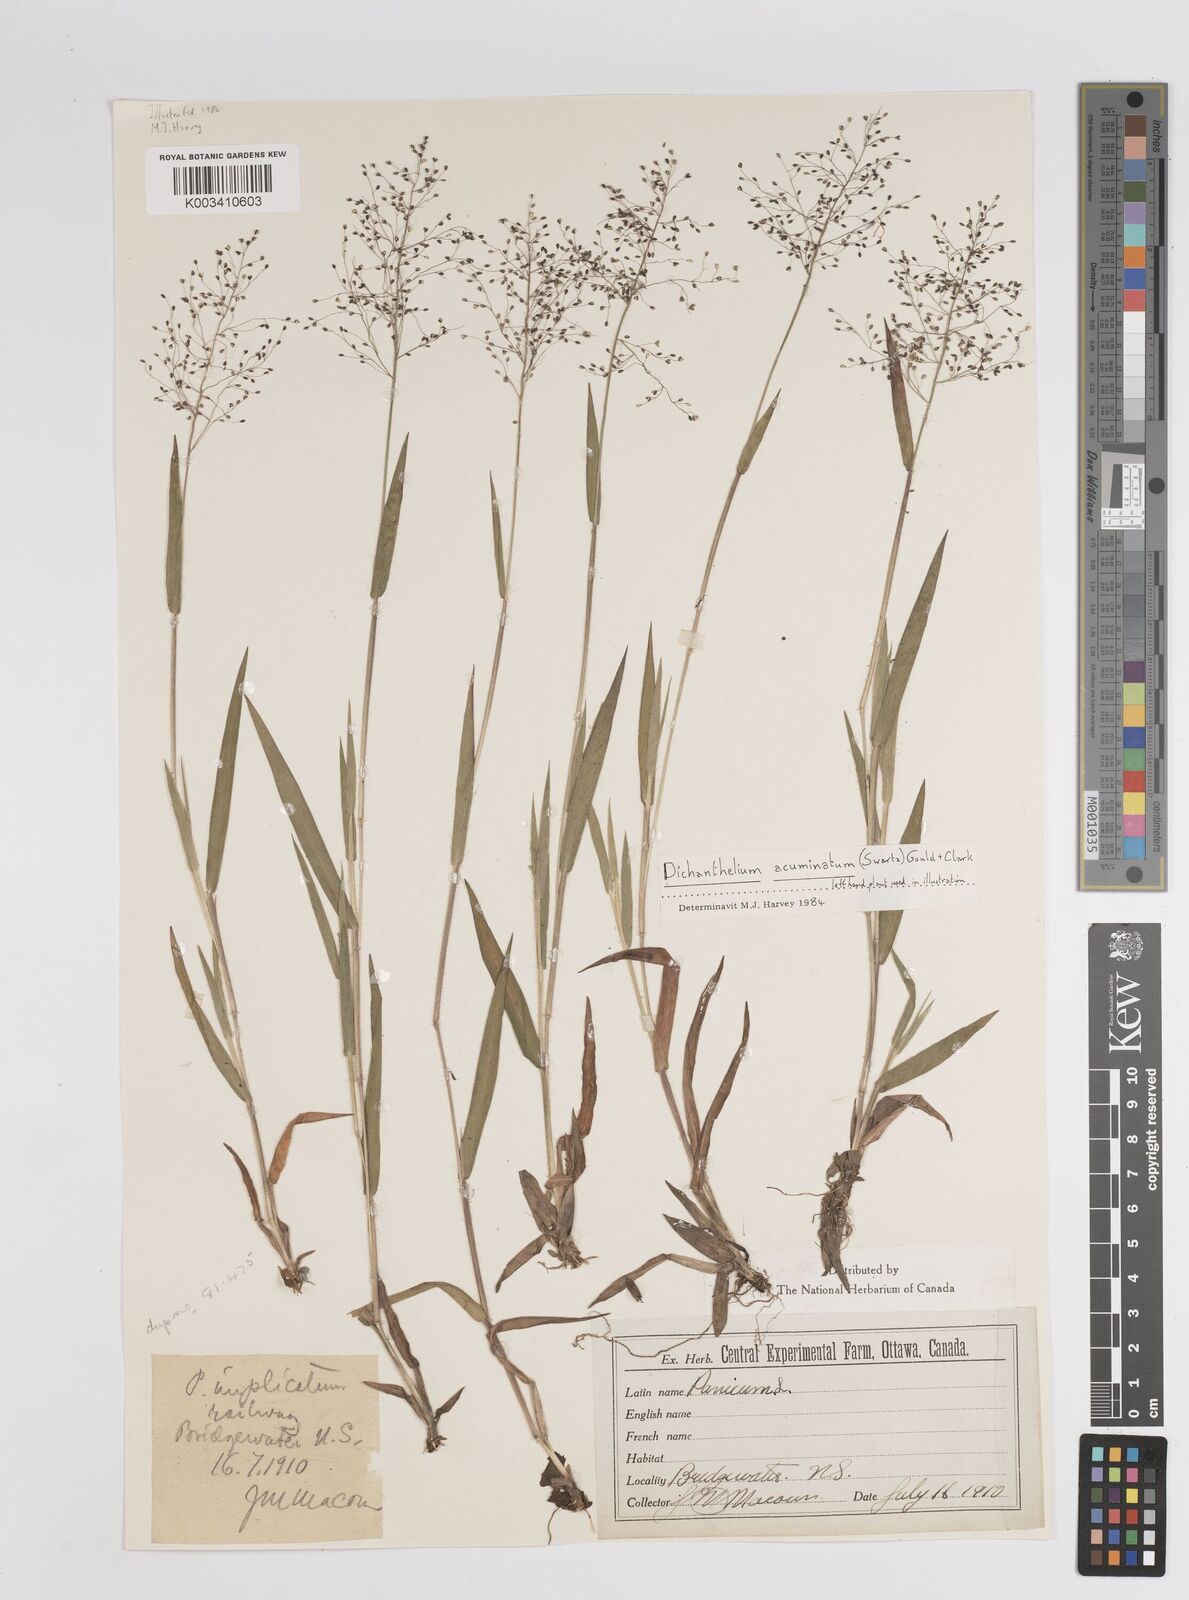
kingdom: Plantae
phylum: Tracheophyta
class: Liliopsida
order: Poales
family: Poaceae
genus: Dichanthelium
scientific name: Dichanthelium lanuginosum
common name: Woolly panicgrass
